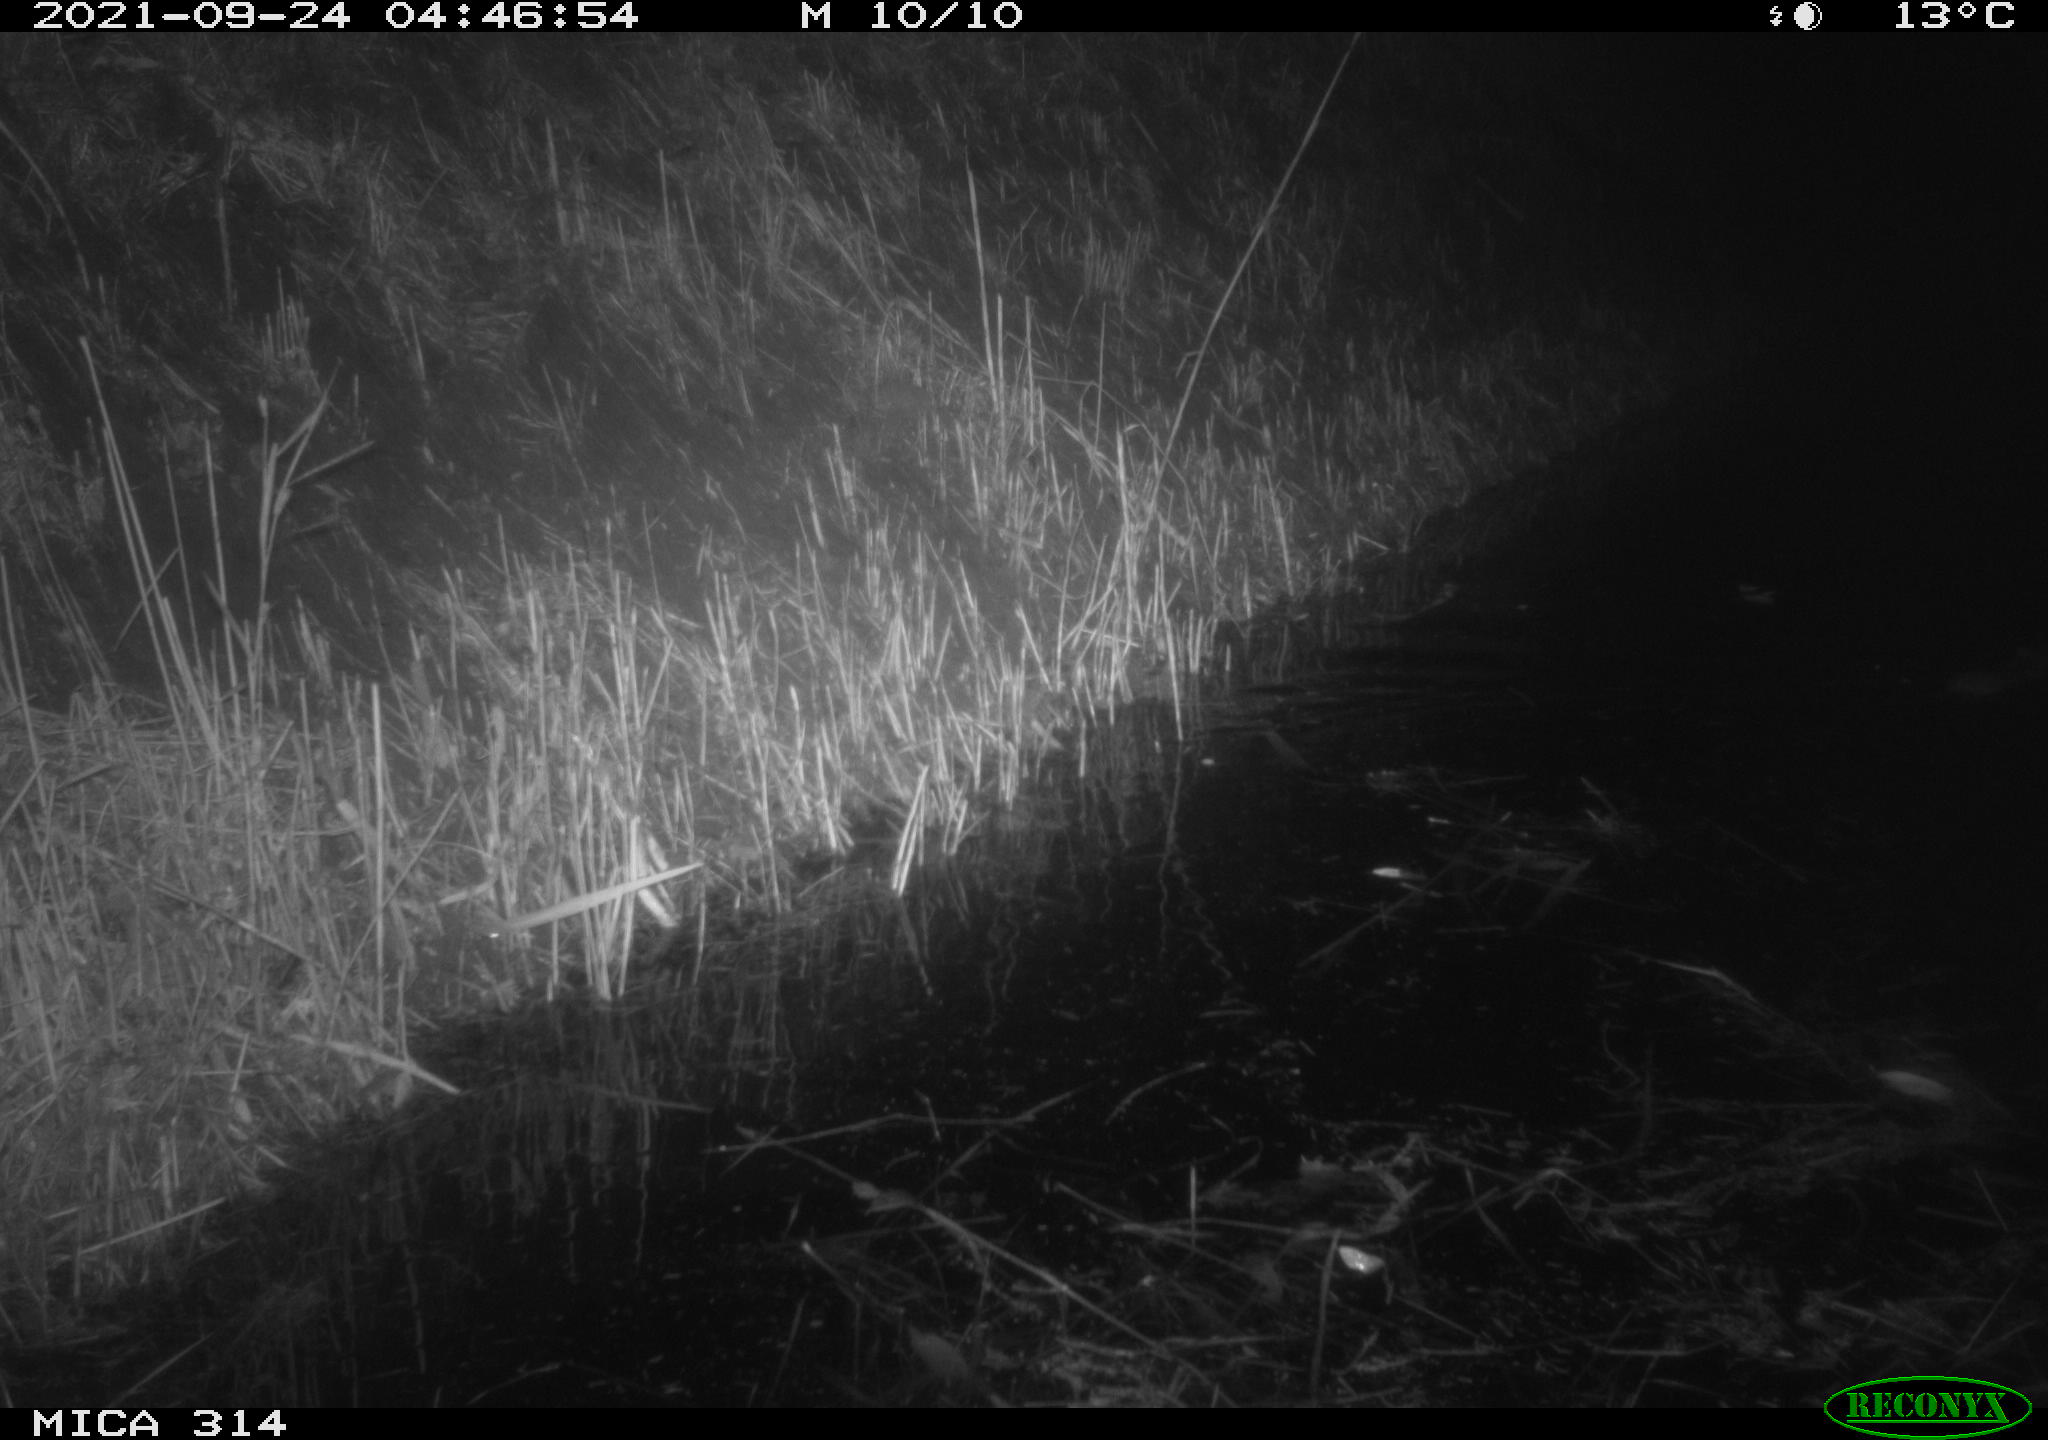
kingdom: Animalia
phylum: Chordata
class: Mammalia
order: Rodentia
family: Muridae
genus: Rattus
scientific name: Rattus norvegicus
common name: Brown rat
